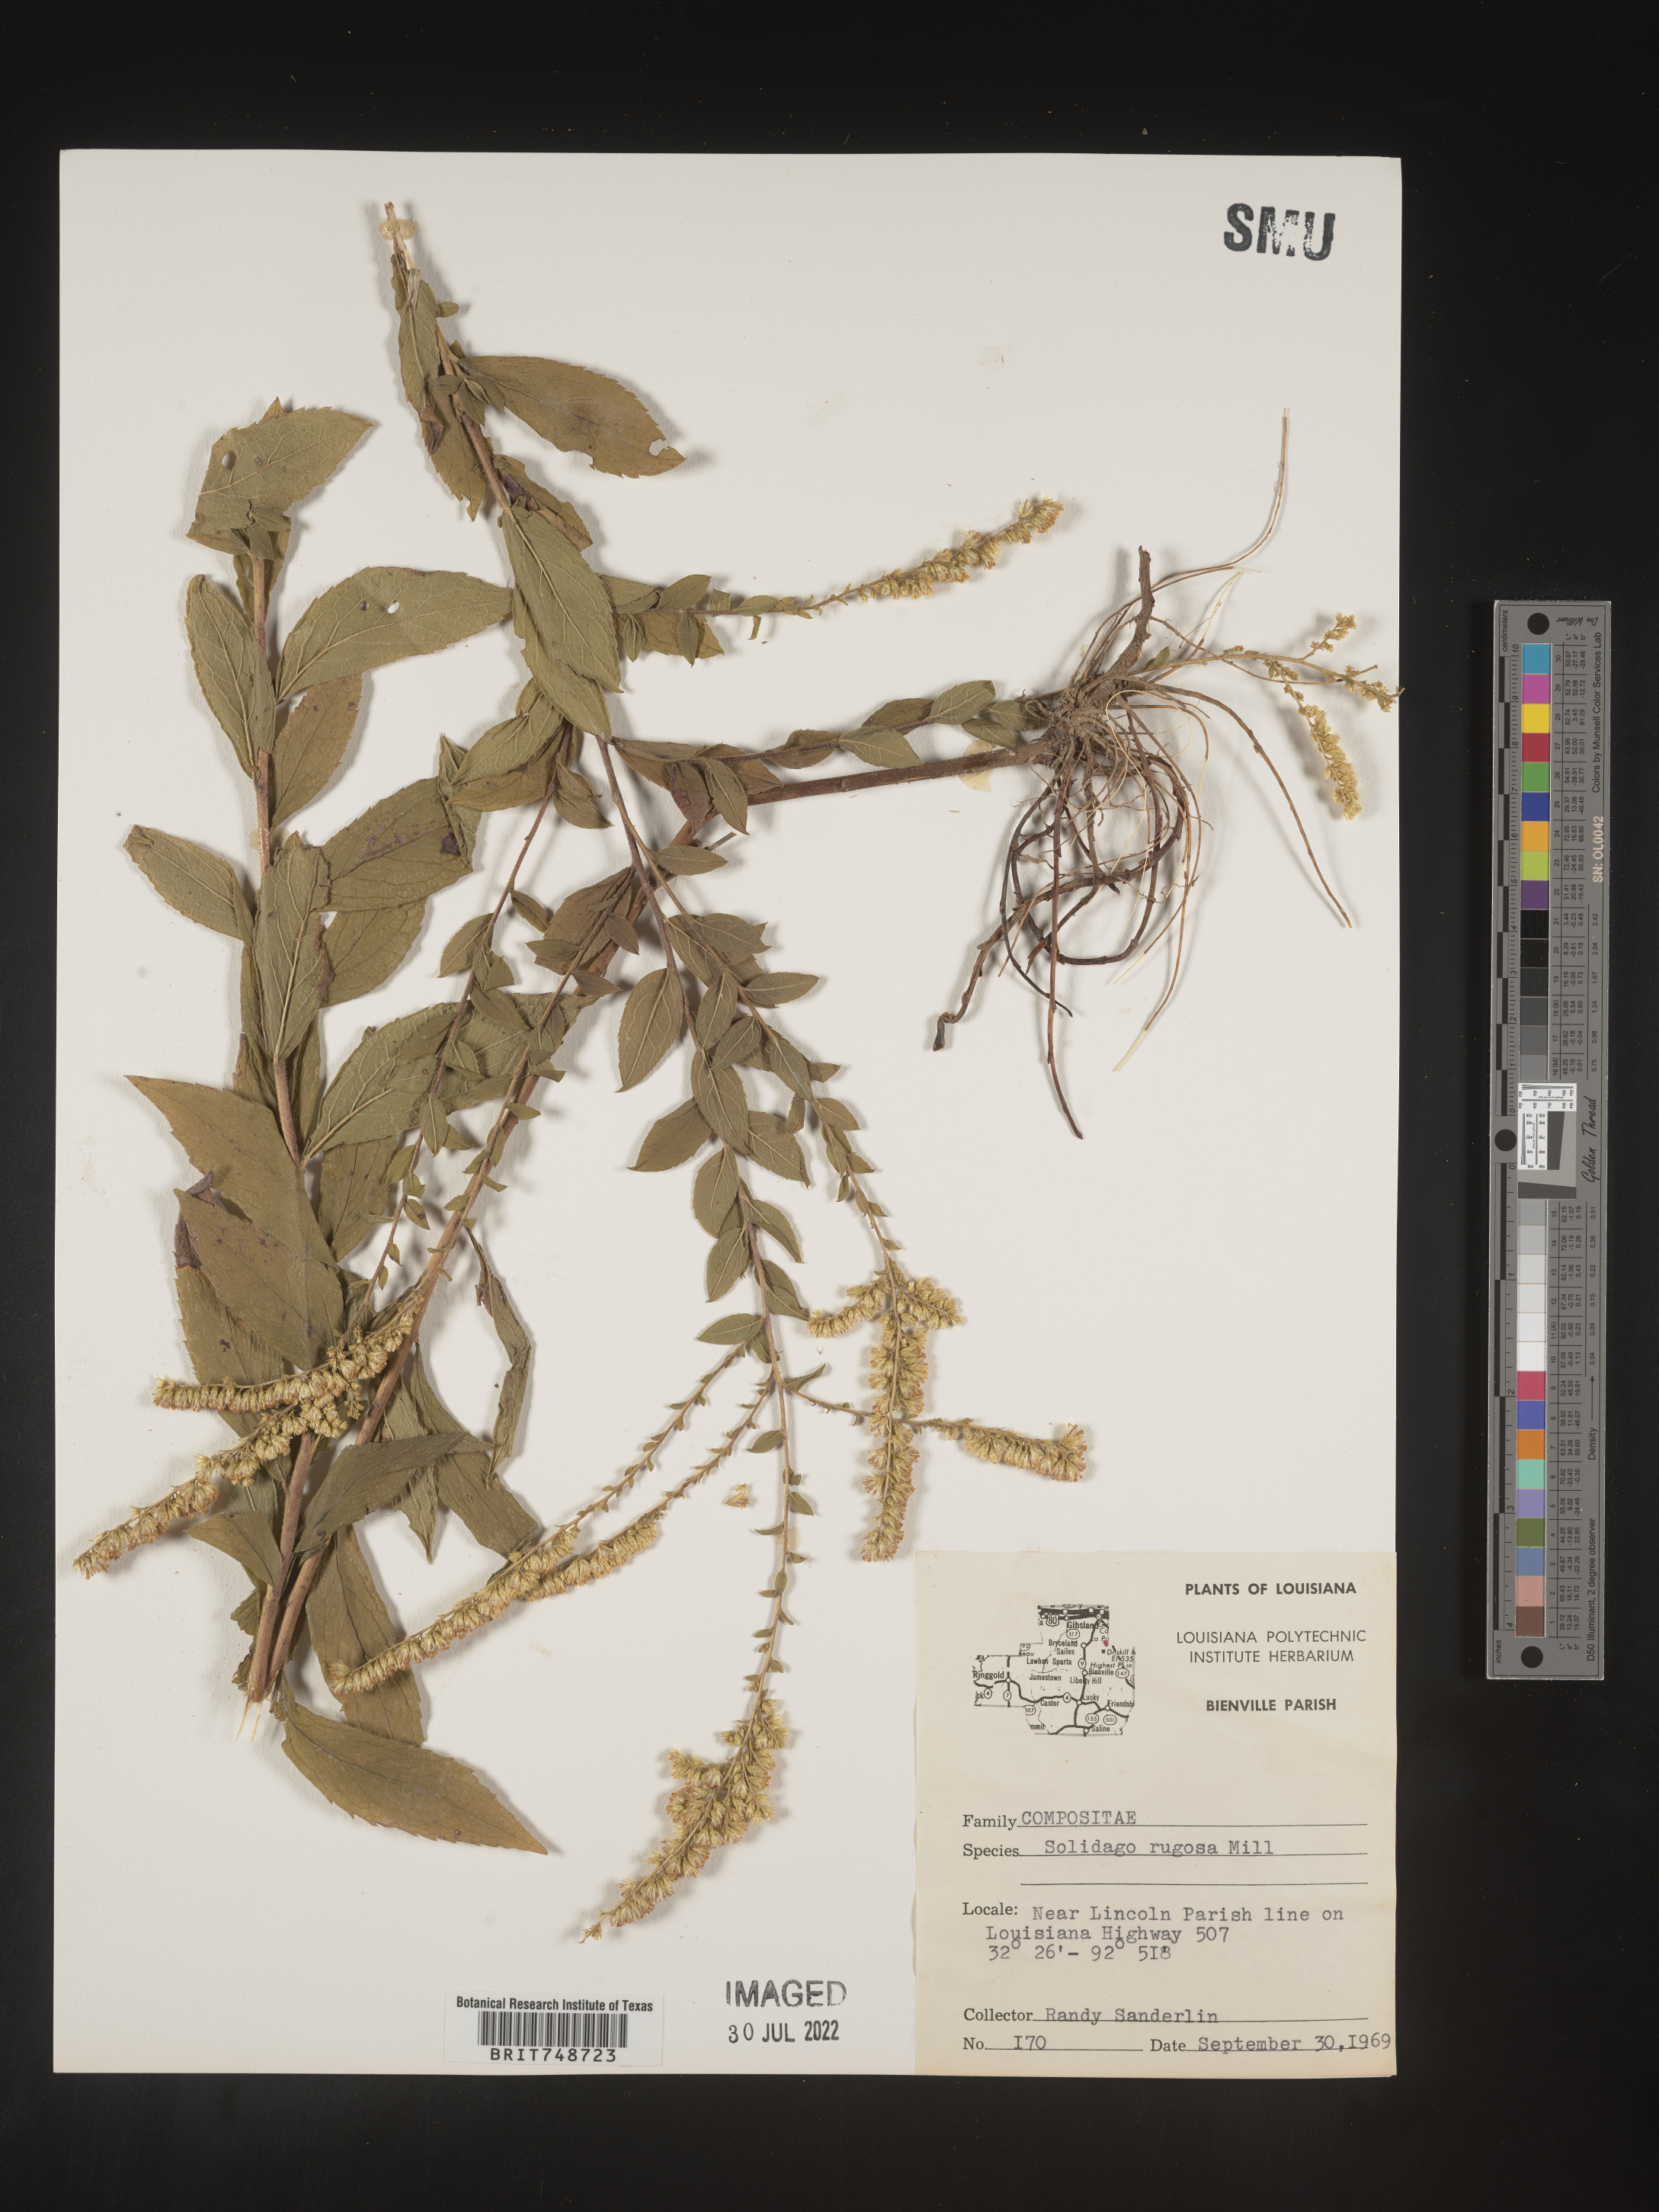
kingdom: Plantae
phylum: Tracheophyta
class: Magnoliopsida
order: Asterales
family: Asteraceae
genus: Solidago
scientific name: Solidago rugosa
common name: Rough-stemmed goldenrod
